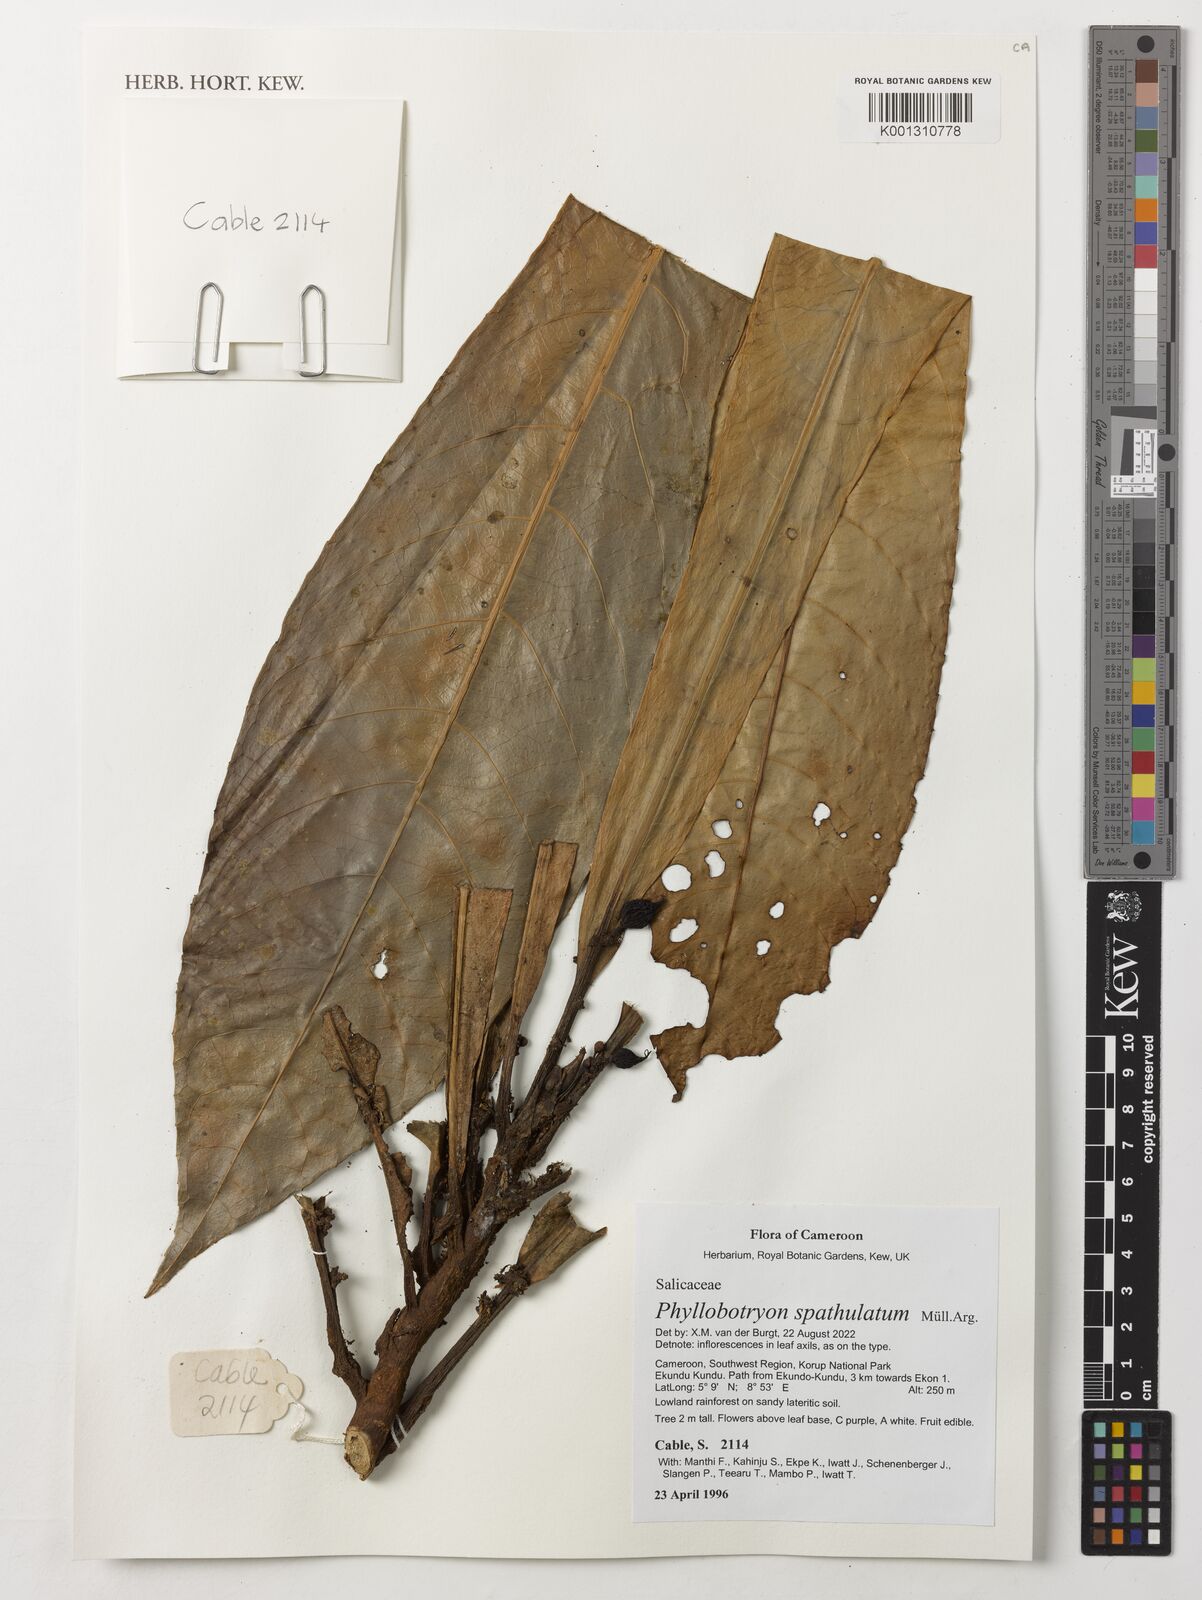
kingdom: Plantae
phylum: Tracheophyta
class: Magnoliopsida
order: Malpighiales
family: Salicaceae
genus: Phyllobotryon
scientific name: Phyllobotryon spathulatum
